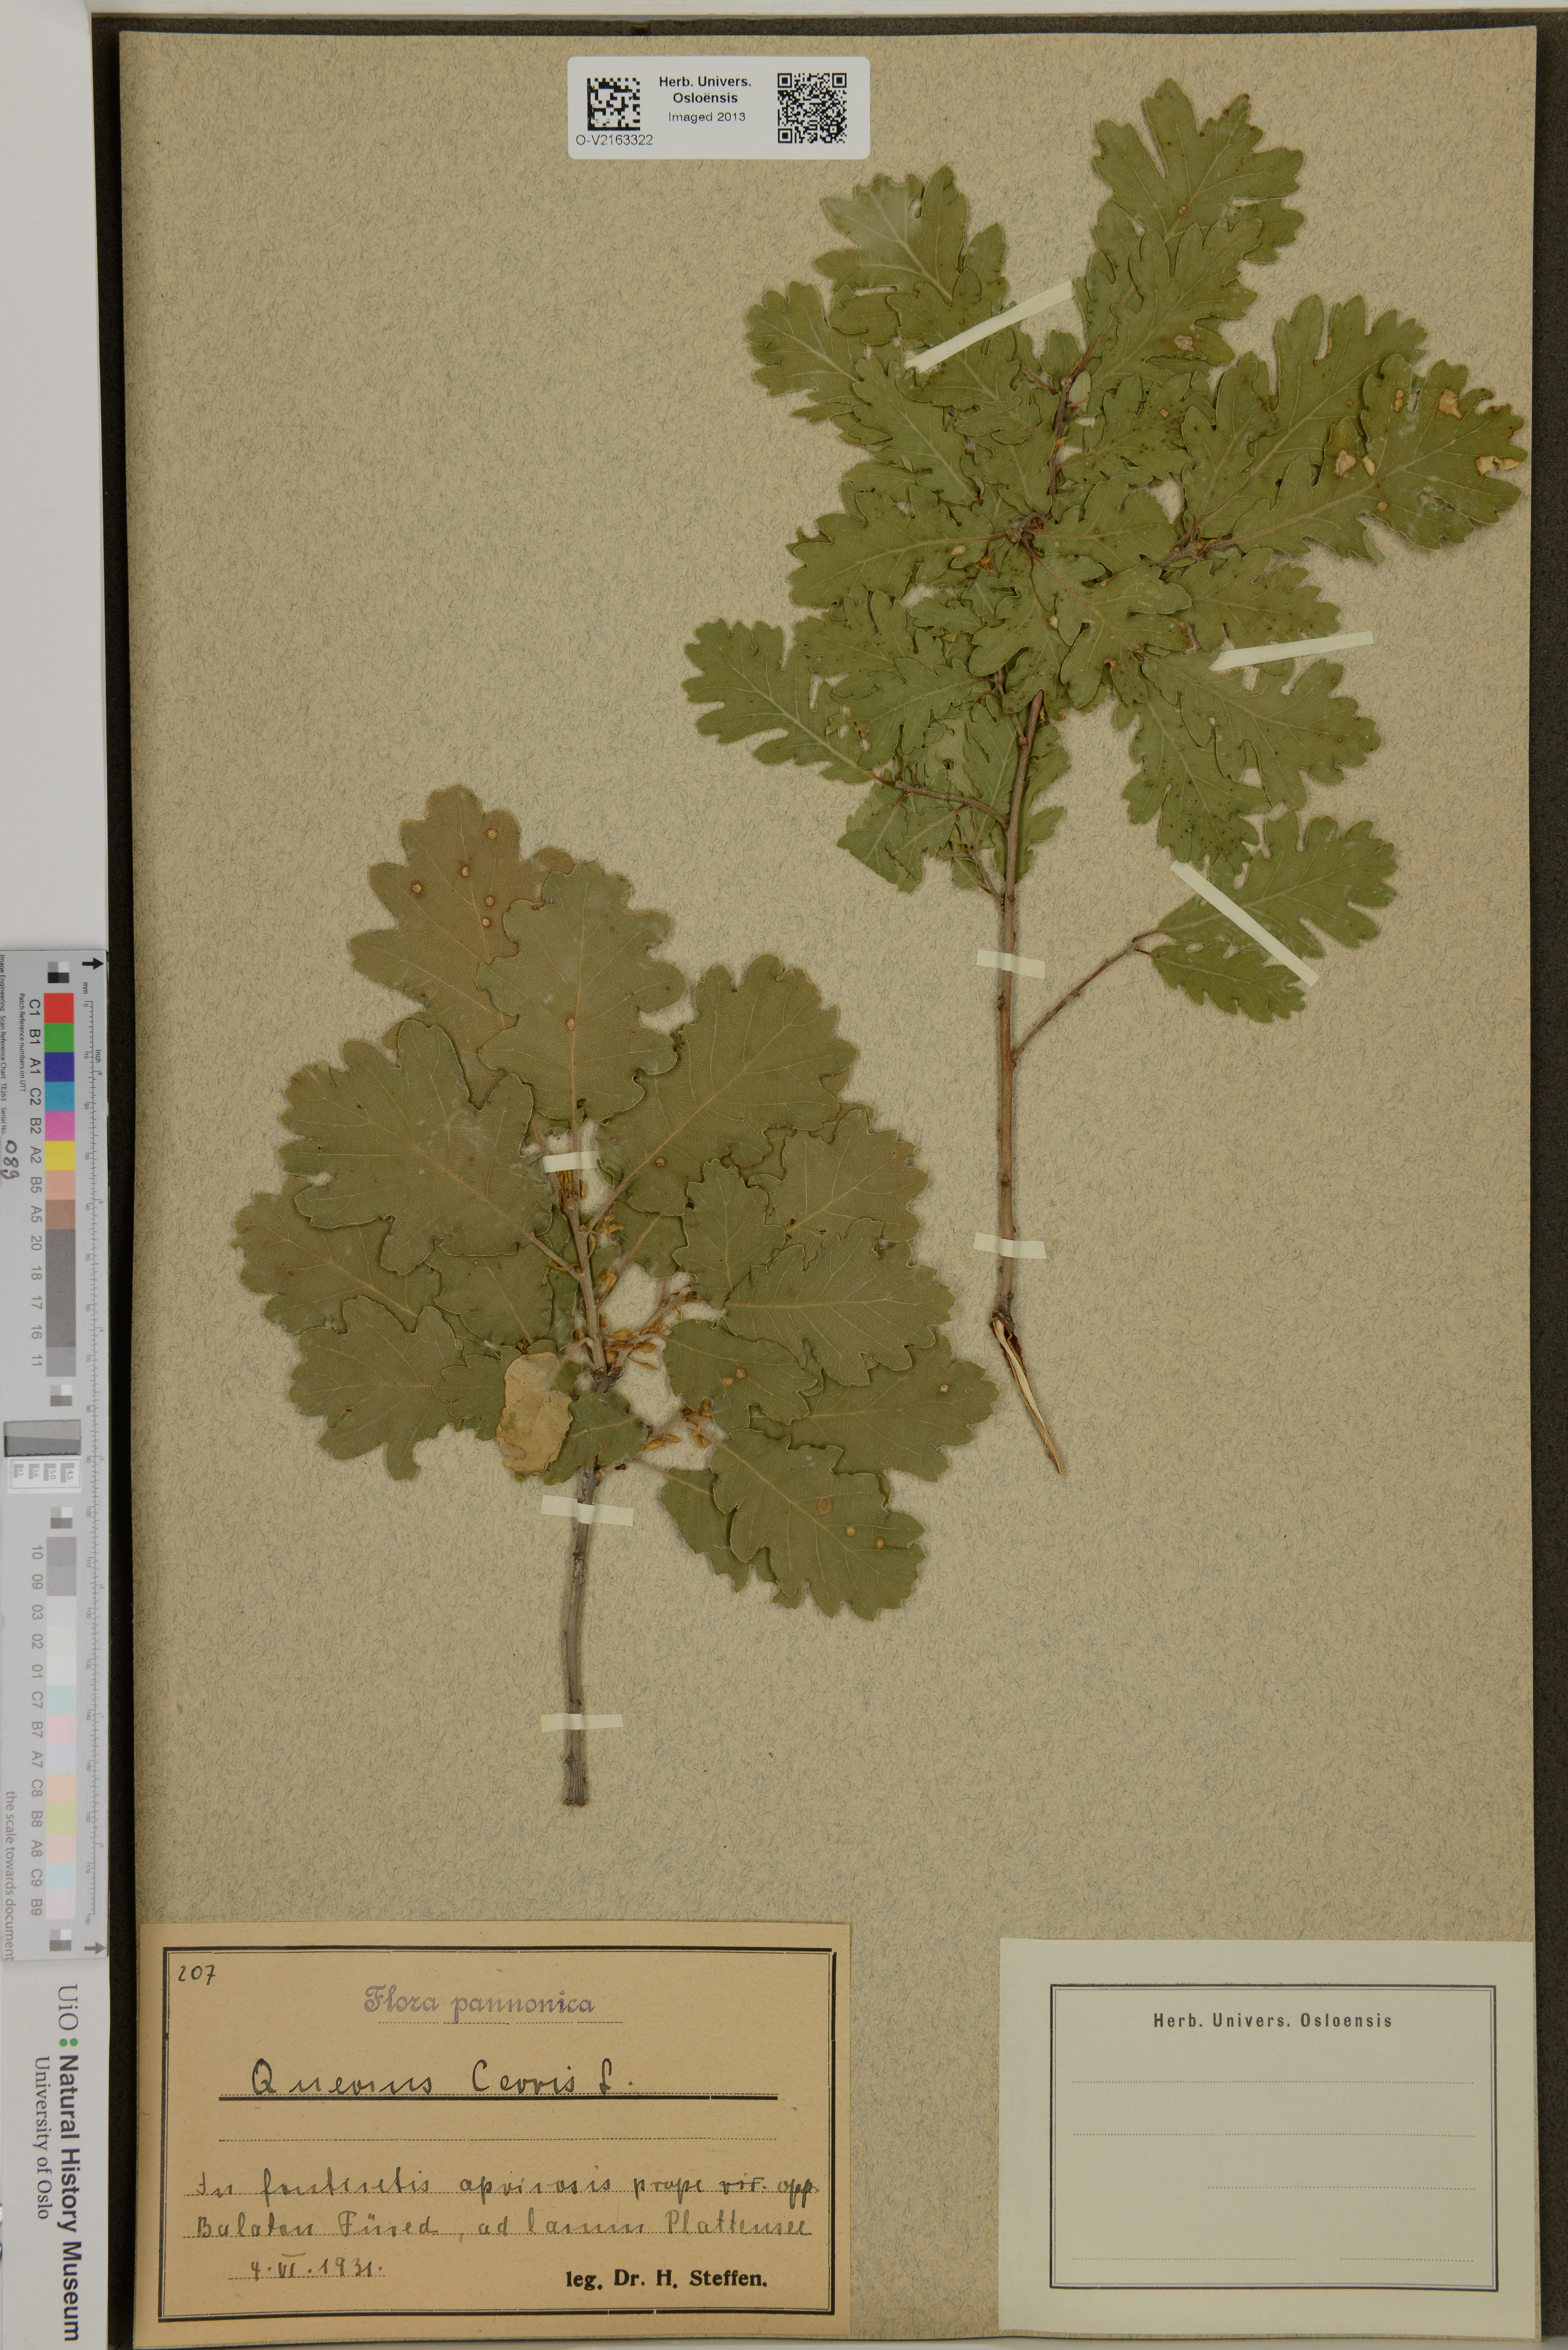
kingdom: Plantae
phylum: Tracheophyta
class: Magnoliopsida
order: Fagales
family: Fagaceae
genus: Quercus
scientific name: Quercus cerris
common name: Turkey oak
